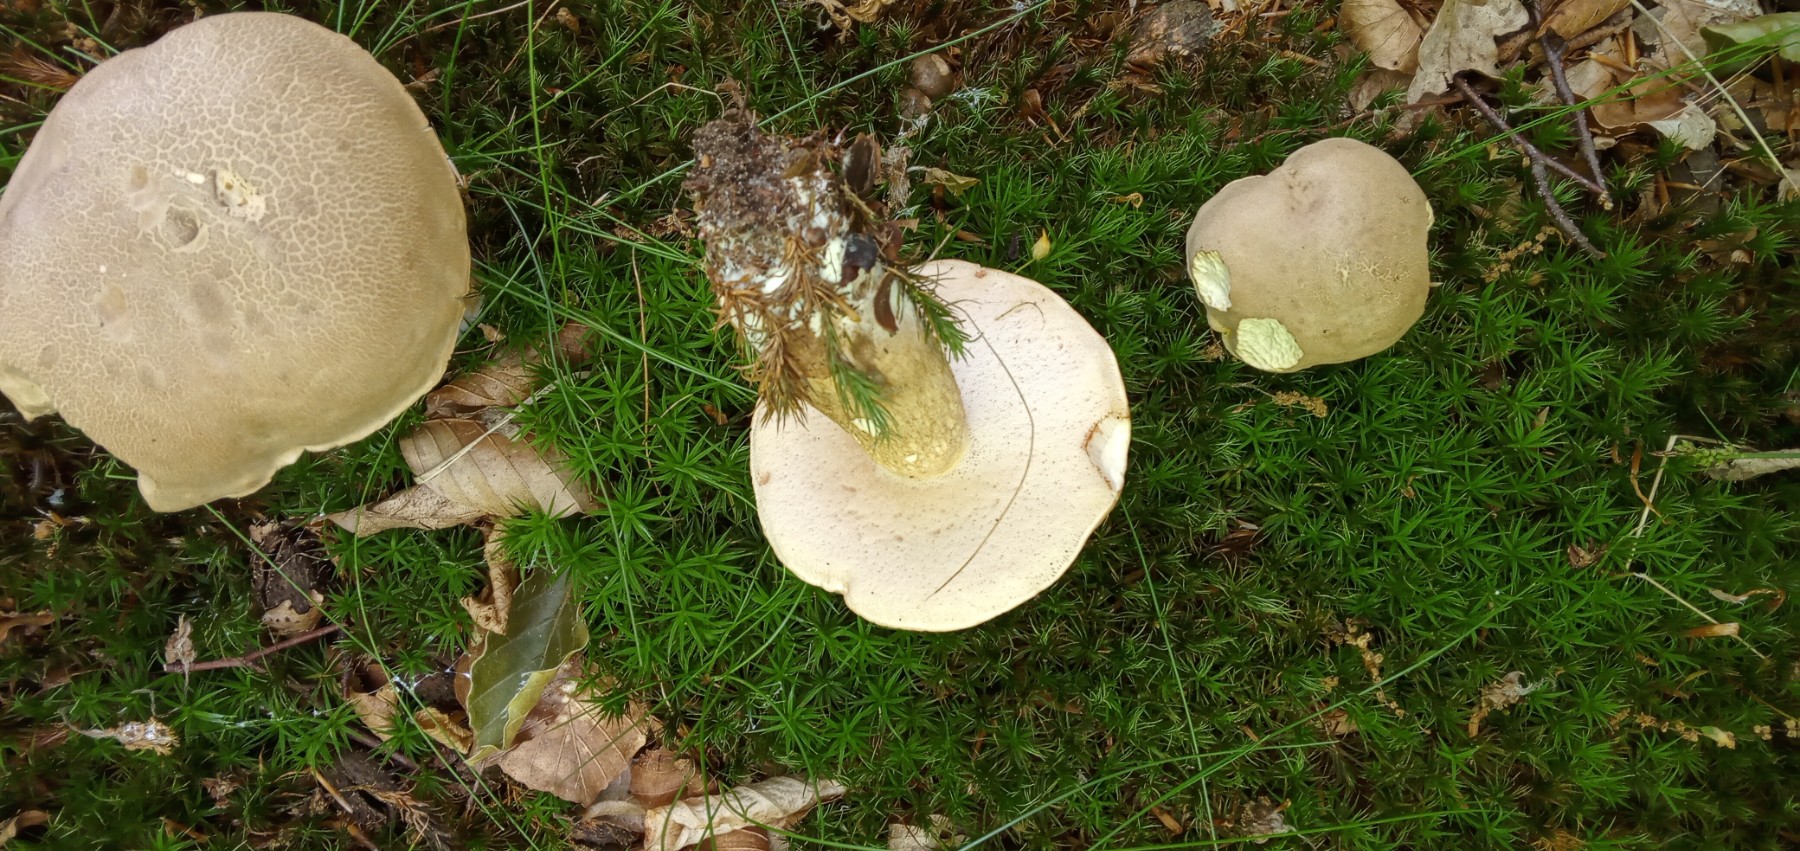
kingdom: Fungi
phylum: Basidiomycota
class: Agaricomycetes
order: Boletales
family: Boletaceae
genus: Tylopilus
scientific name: Tylopilus felleus
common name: galderørhat
